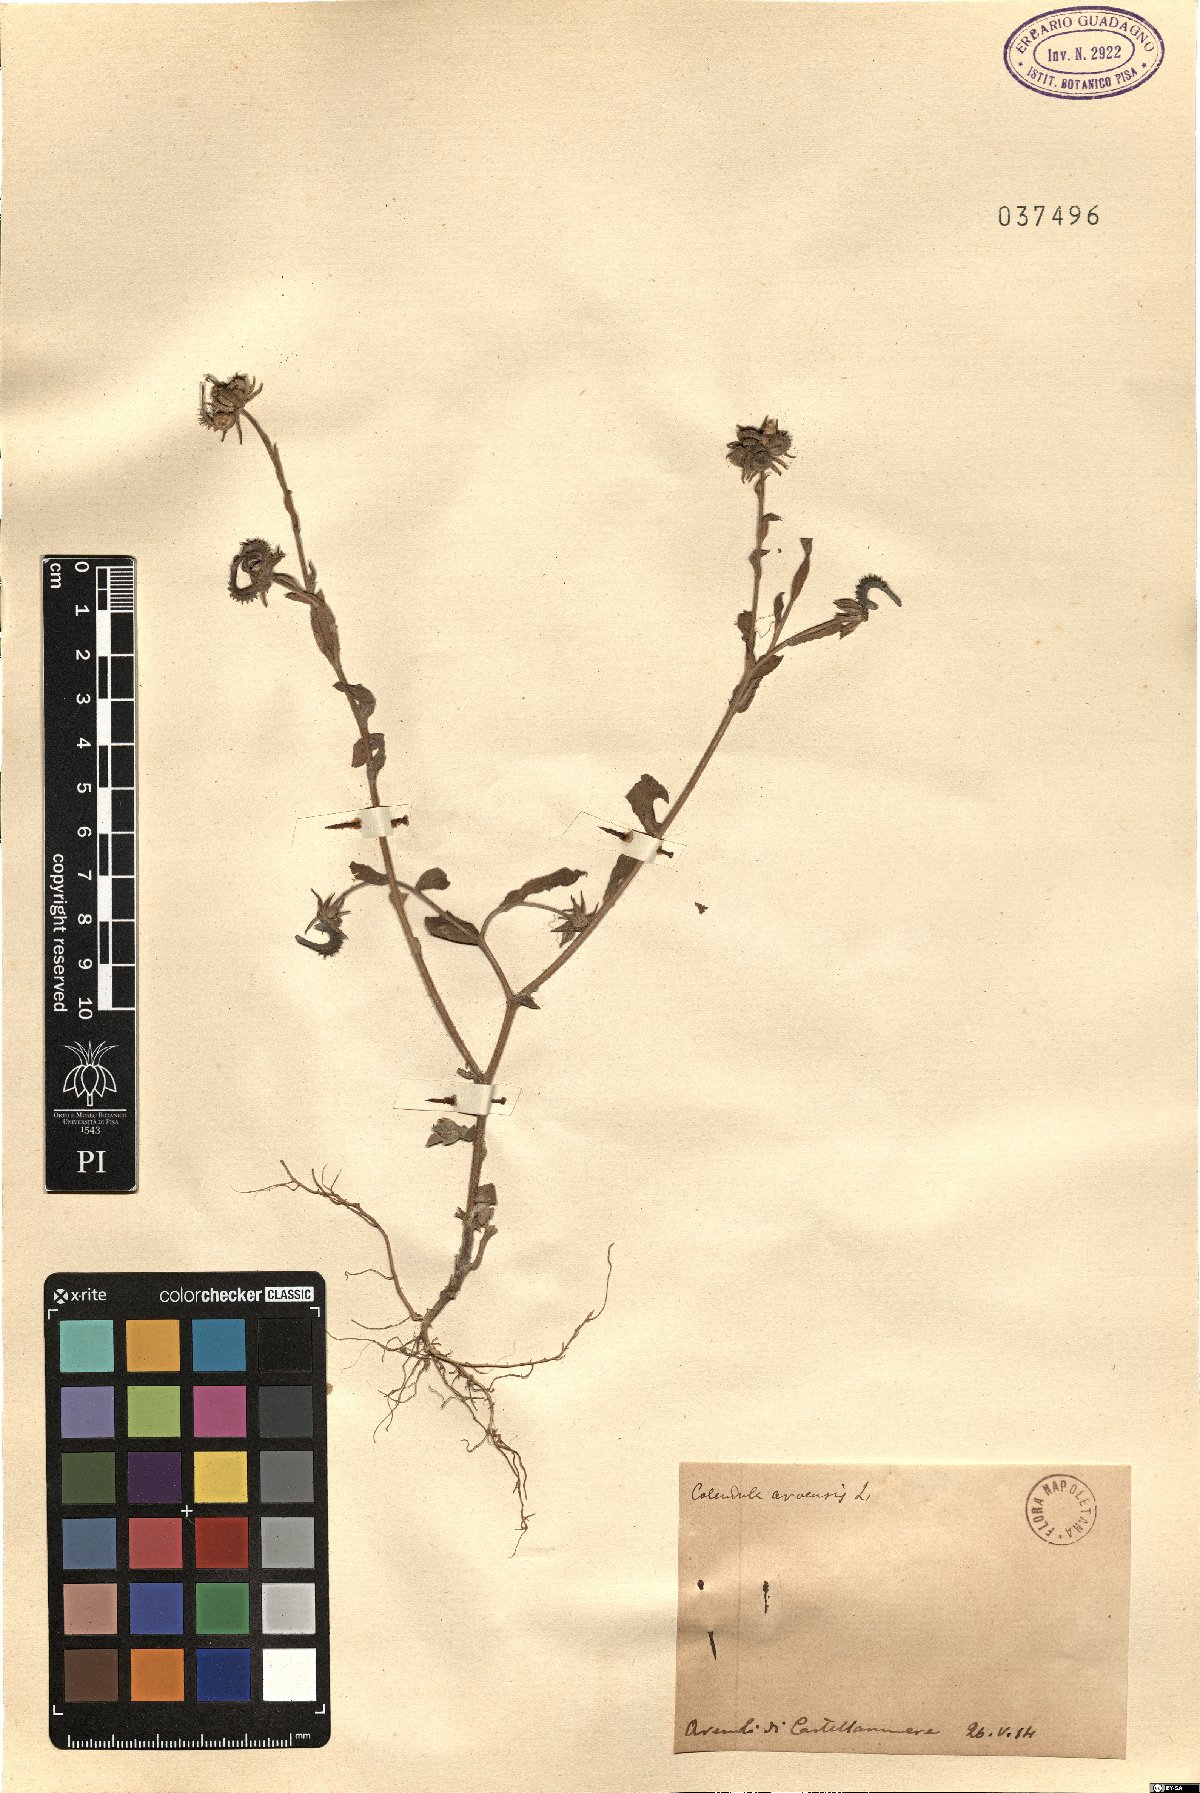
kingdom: Plantae
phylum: Tracheophyta
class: Magnoliopsida
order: Asterales
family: Asteraceae
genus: Calendula
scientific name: Calendula arvensis
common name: Field marigold
